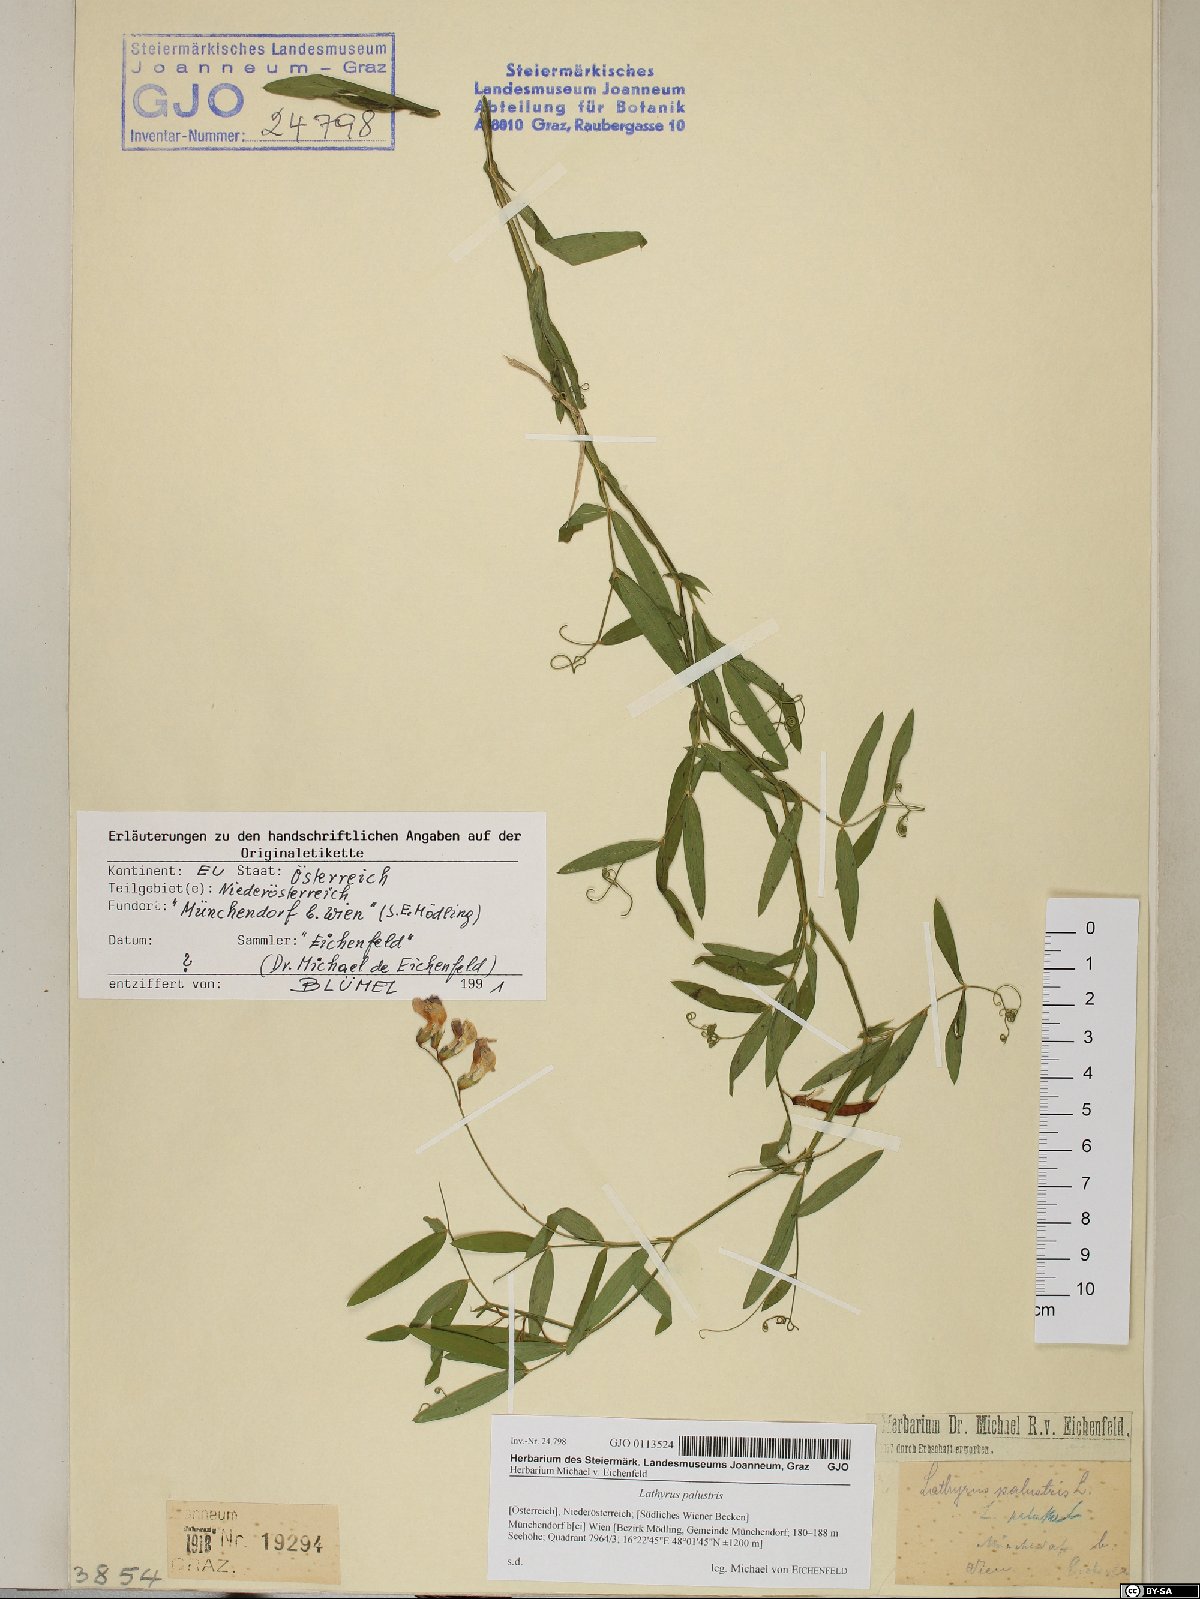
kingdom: Plantae
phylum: Tracheophyta
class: Magnoliopsida
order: Fabales
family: Fabaceae
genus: Lathyrus
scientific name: Lathyrus palustris
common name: Marsh pea
